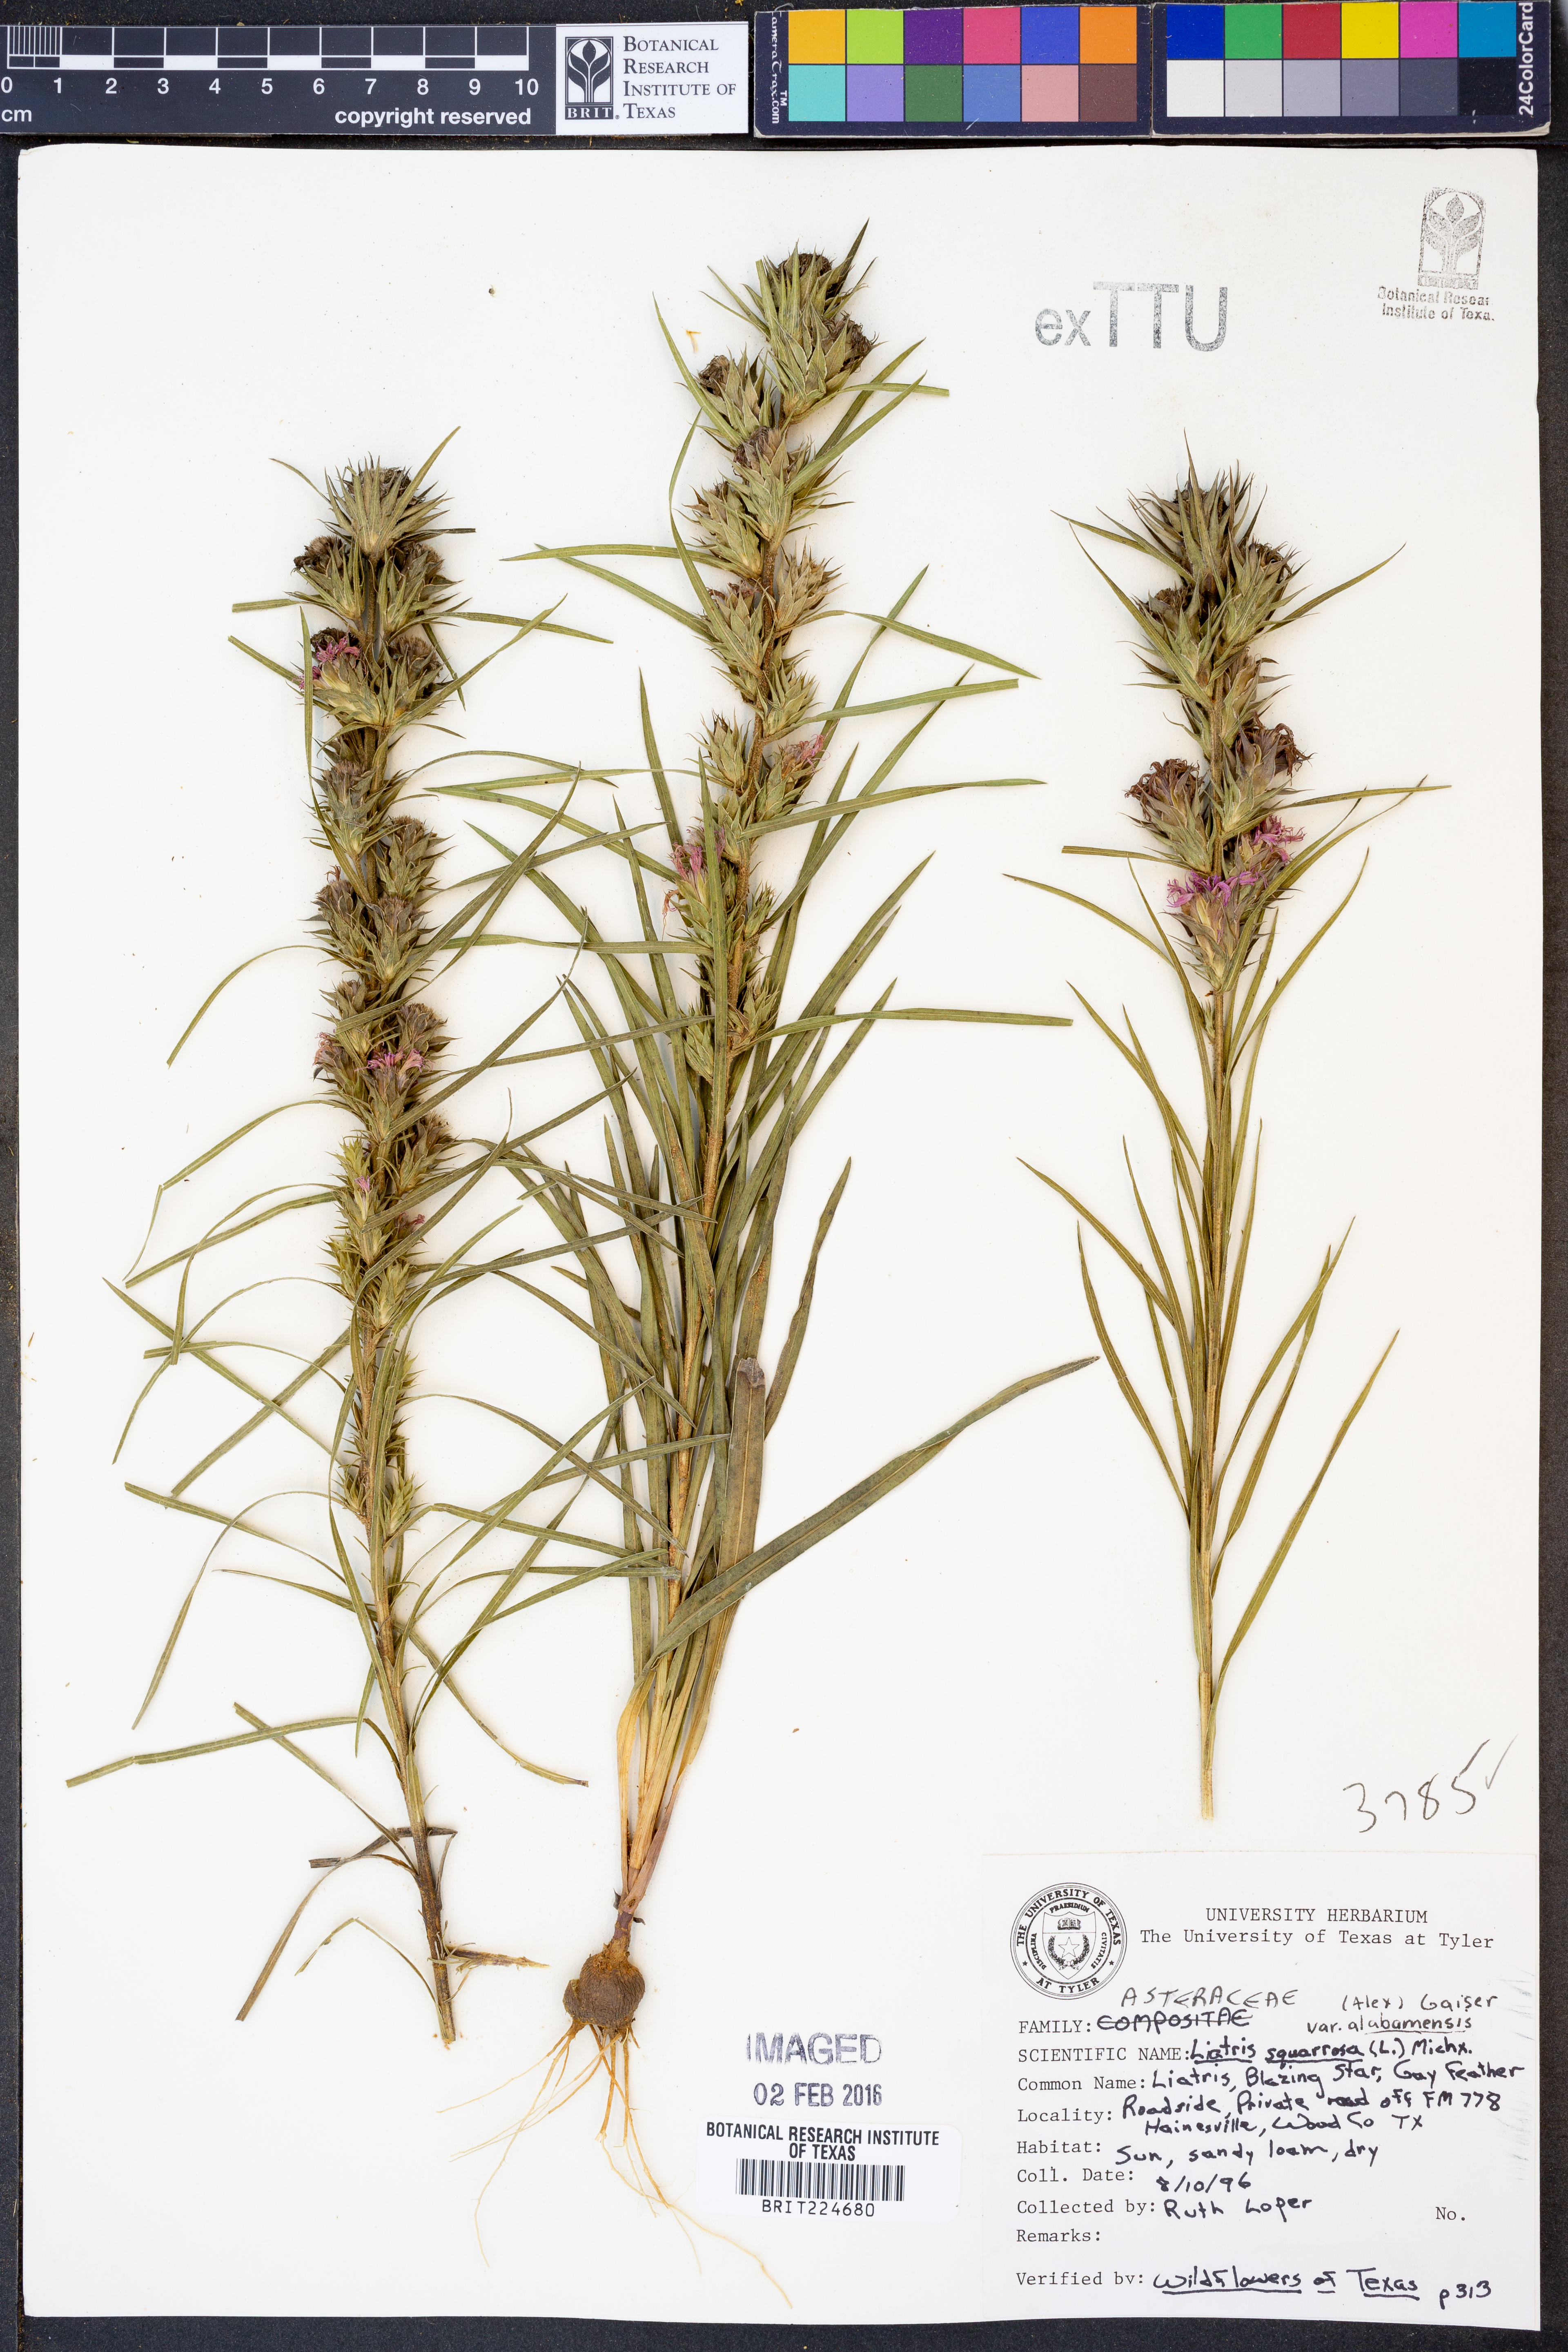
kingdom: Plantae
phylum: Tracheophyta
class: Magnoliopsida
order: Asterales
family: Asteraceae
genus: Liatris
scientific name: Liatris squarrosa
